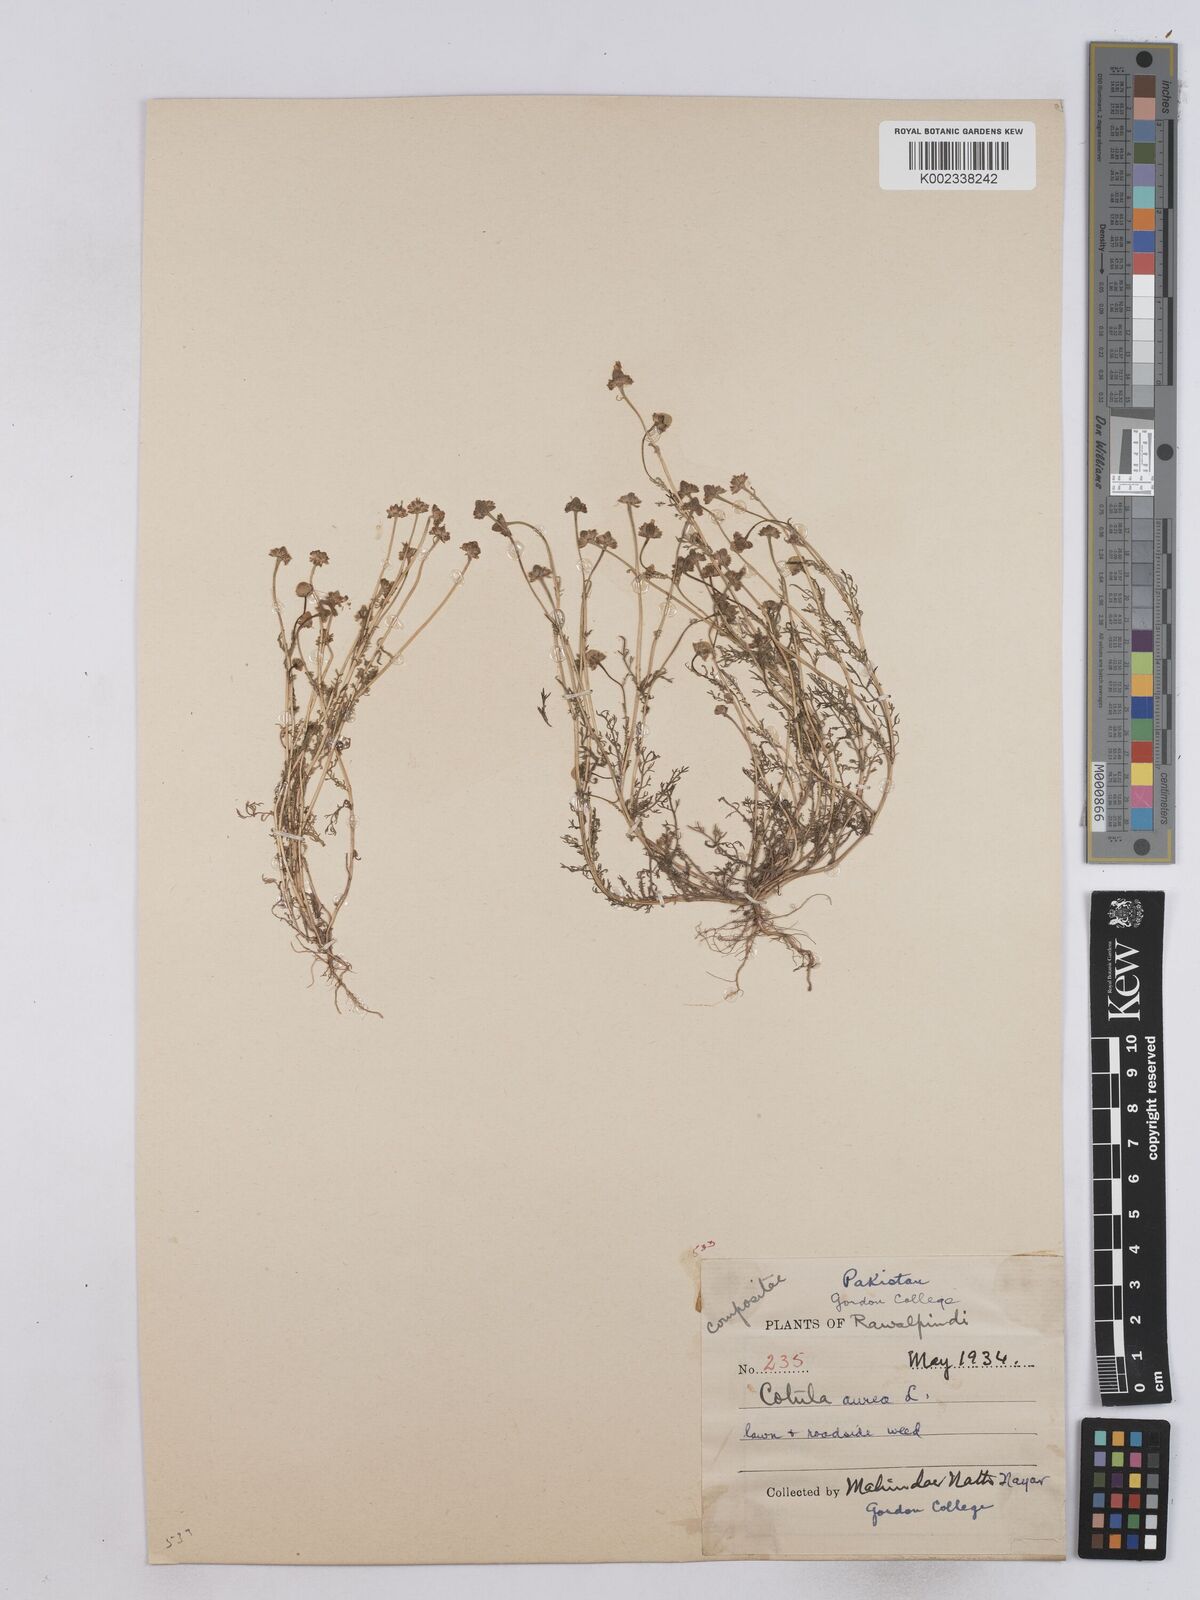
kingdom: Plantae
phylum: Tracheophyta
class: Magnoliopsida
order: Asterales
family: Asteraceae
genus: Matricaria
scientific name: Matricaria aurea
